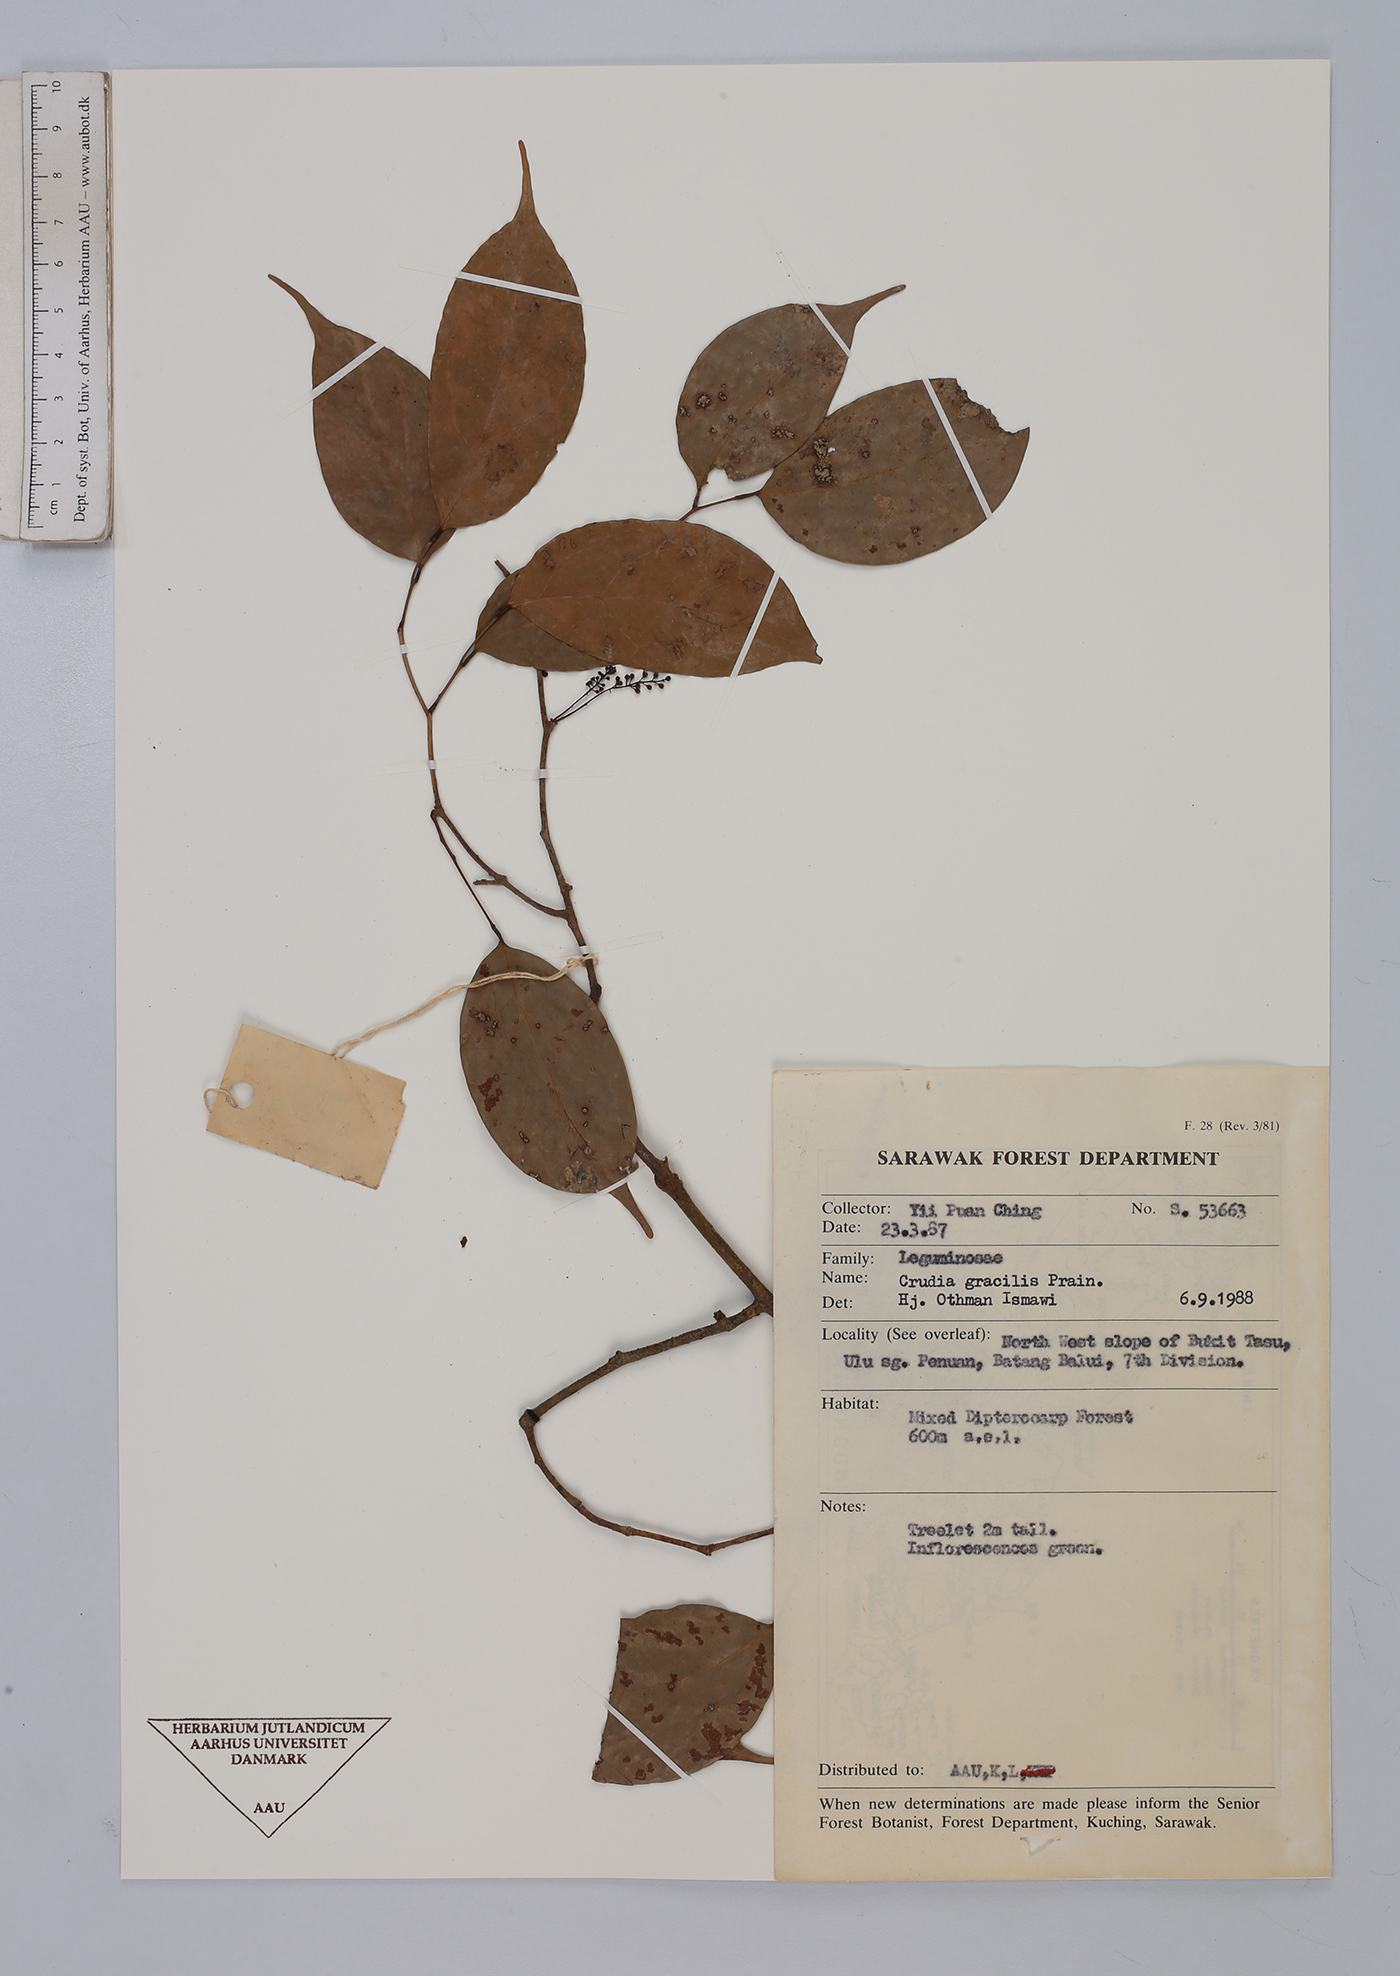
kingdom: Plantae
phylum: Tracheophyta
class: Magnoliopsida
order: Fabales
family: Fabaceae
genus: Crudia
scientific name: Crudia gracilis
